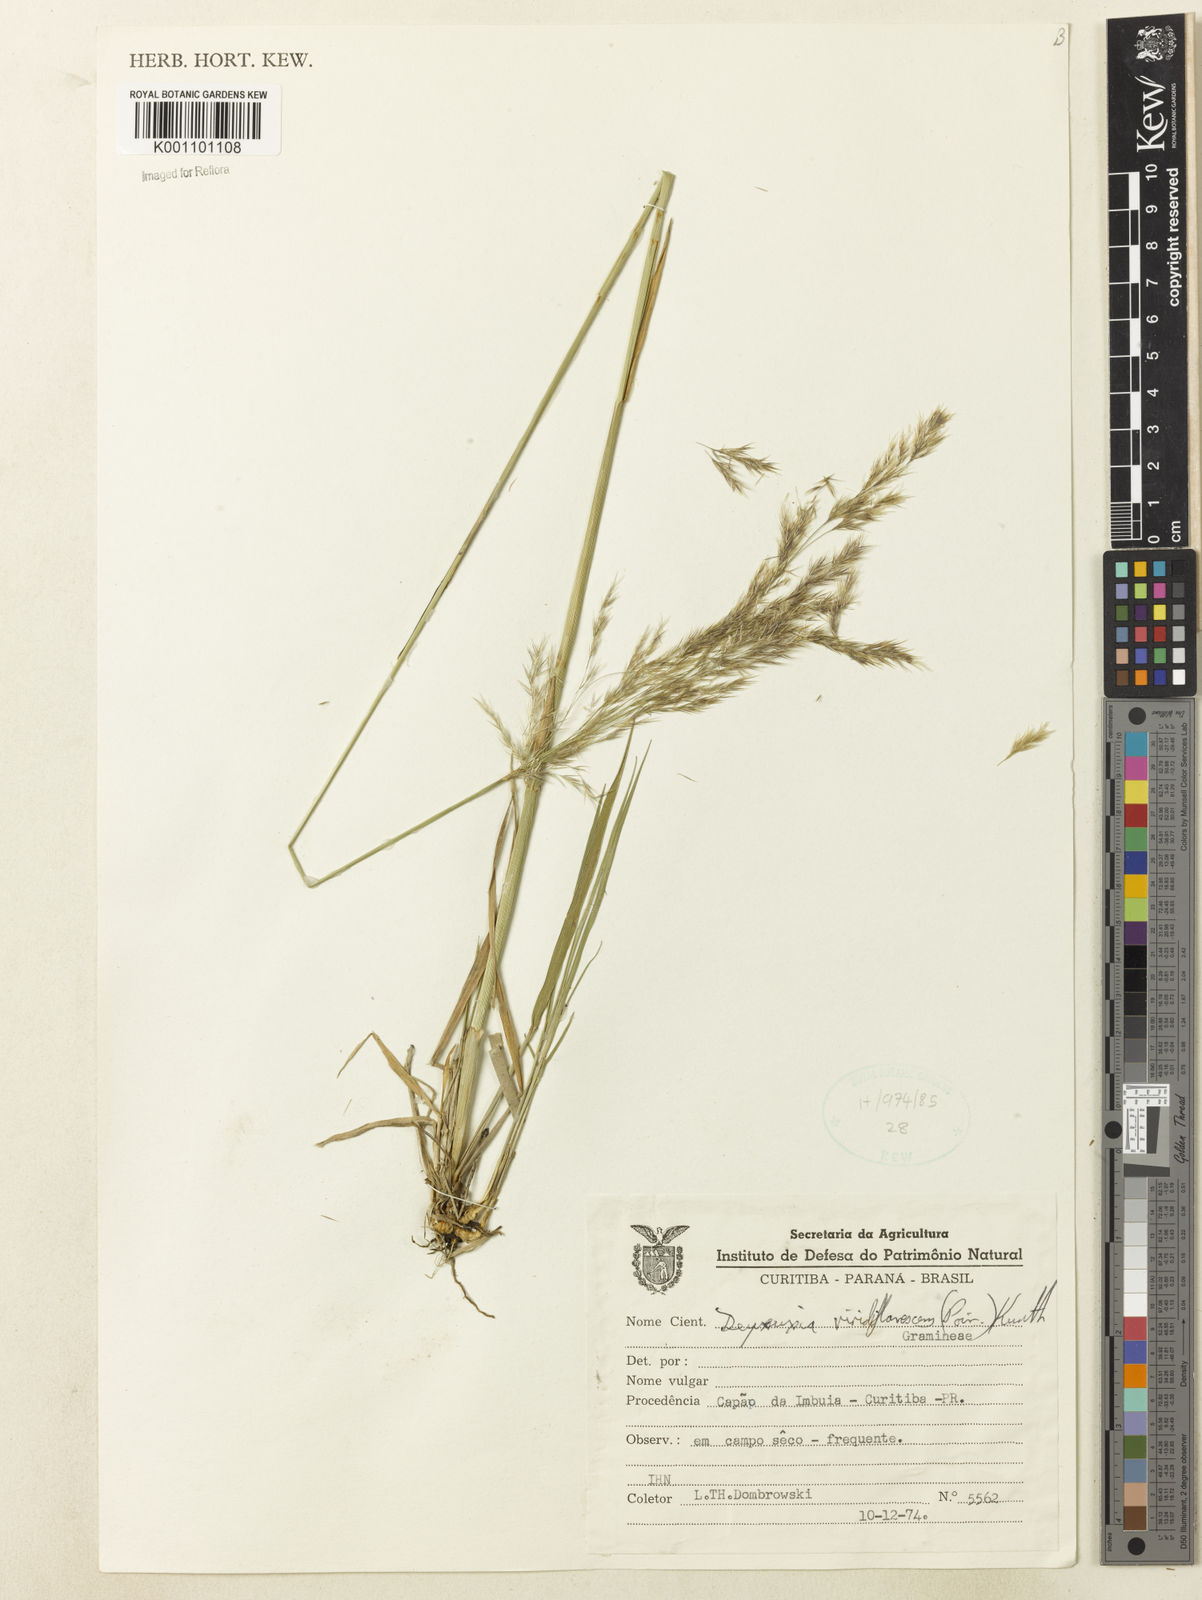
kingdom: Plantae
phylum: Tracheophyta
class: Liliopsida
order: Poales
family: Poaceae
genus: Cinnagrostis
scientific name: Cinnagrostis viridiflavescens
